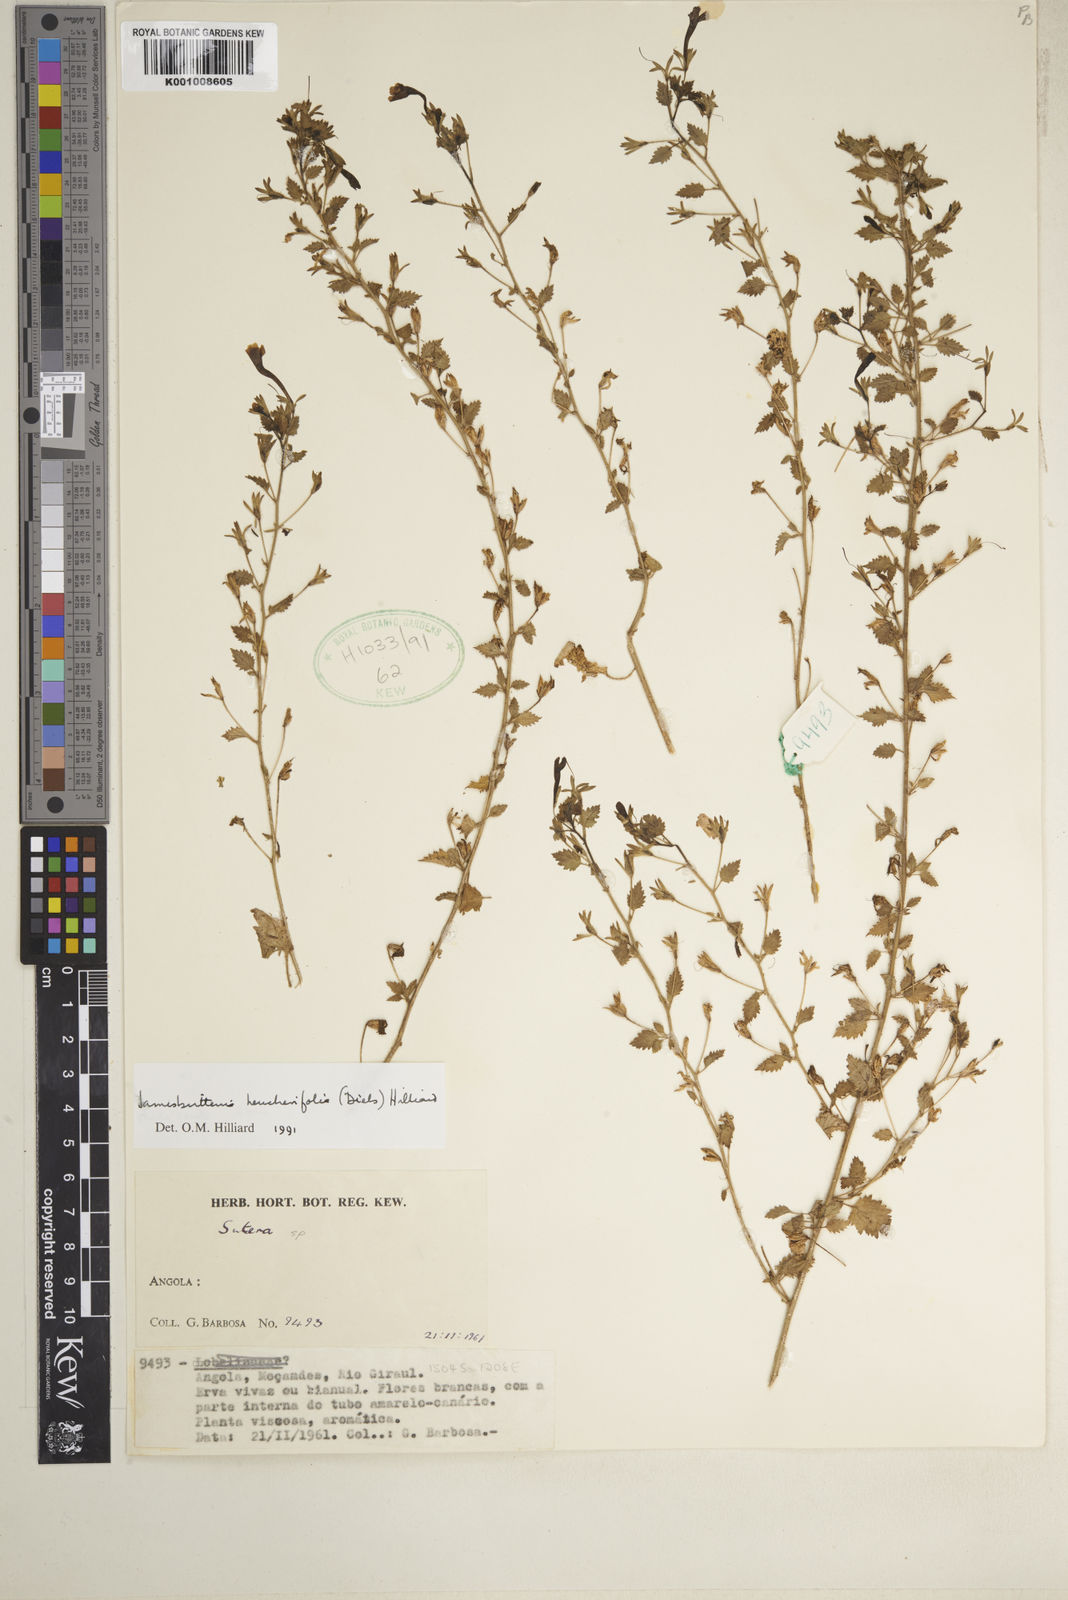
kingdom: Plantae
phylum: Tracheophyta
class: Magnoliopsida
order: Lamiales
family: Scrophulariaceae
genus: Jamesbrittenia
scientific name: Jamesbrittenia heucherifolia
